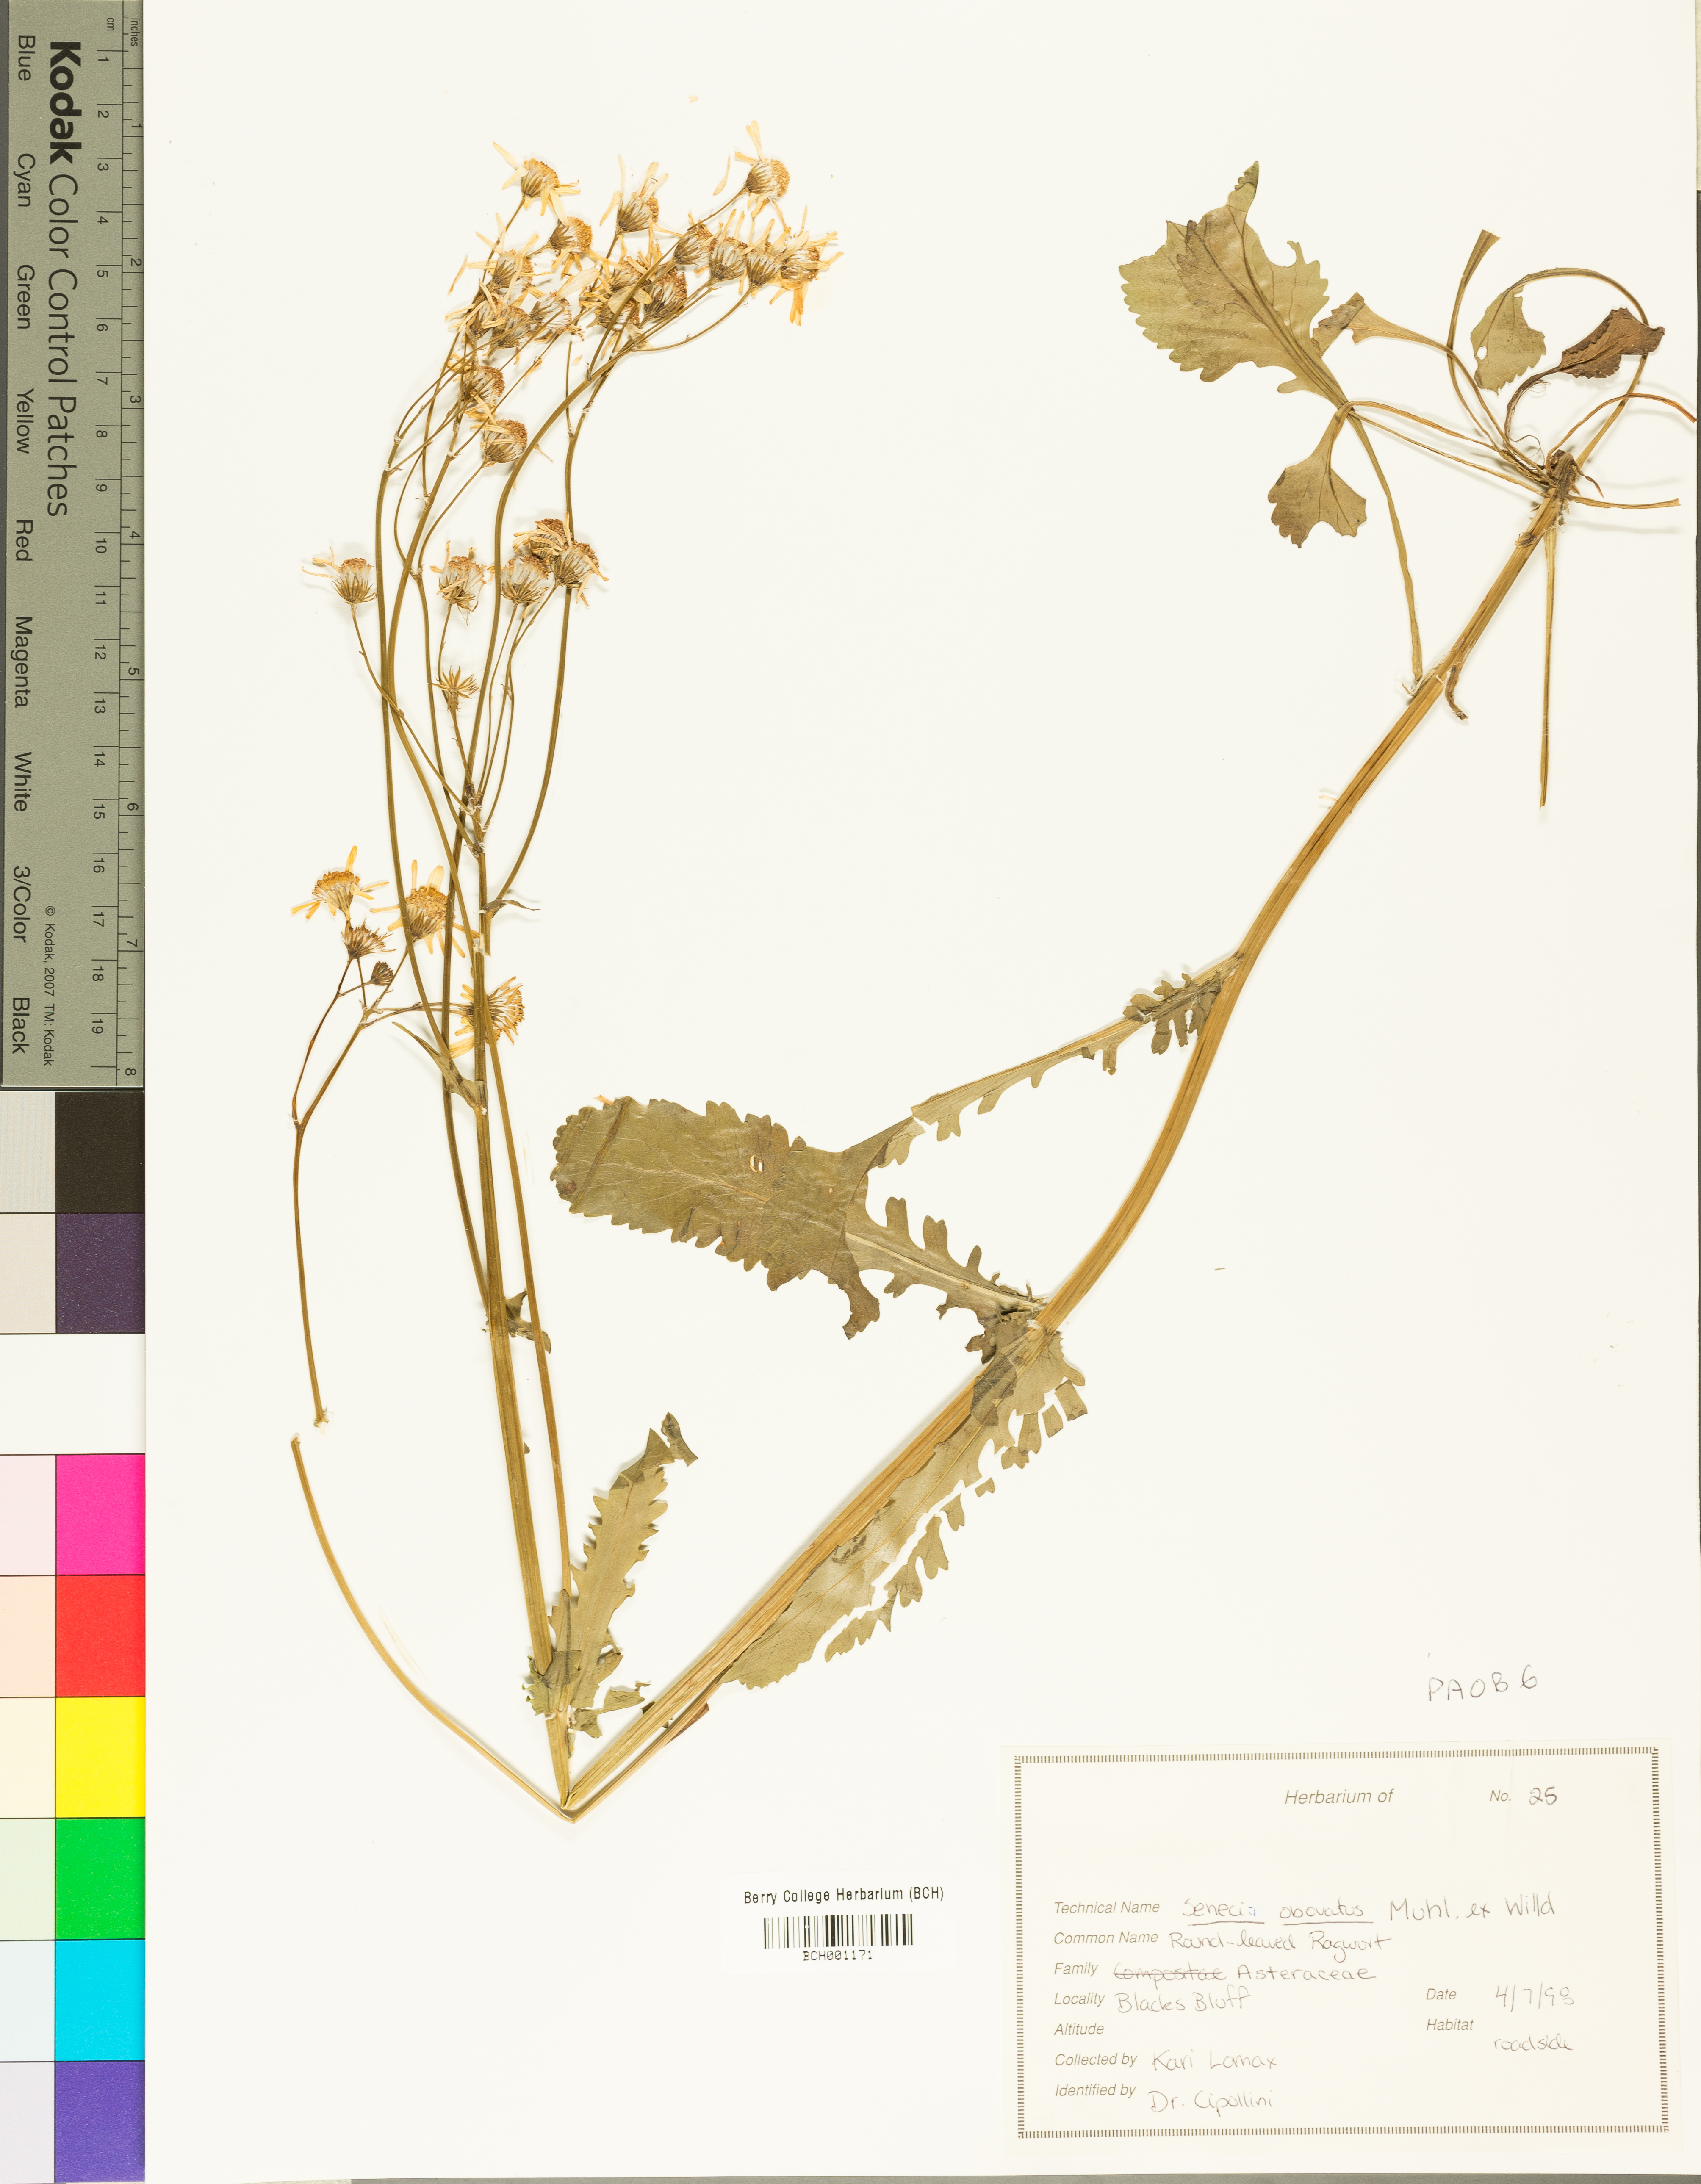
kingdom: Plantae
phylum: Tracheophyta
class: Magnoliopsida
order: Asterales
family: Asteraceae
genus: Packera
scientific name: Packera obovata
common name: Round-leaf ragwort
